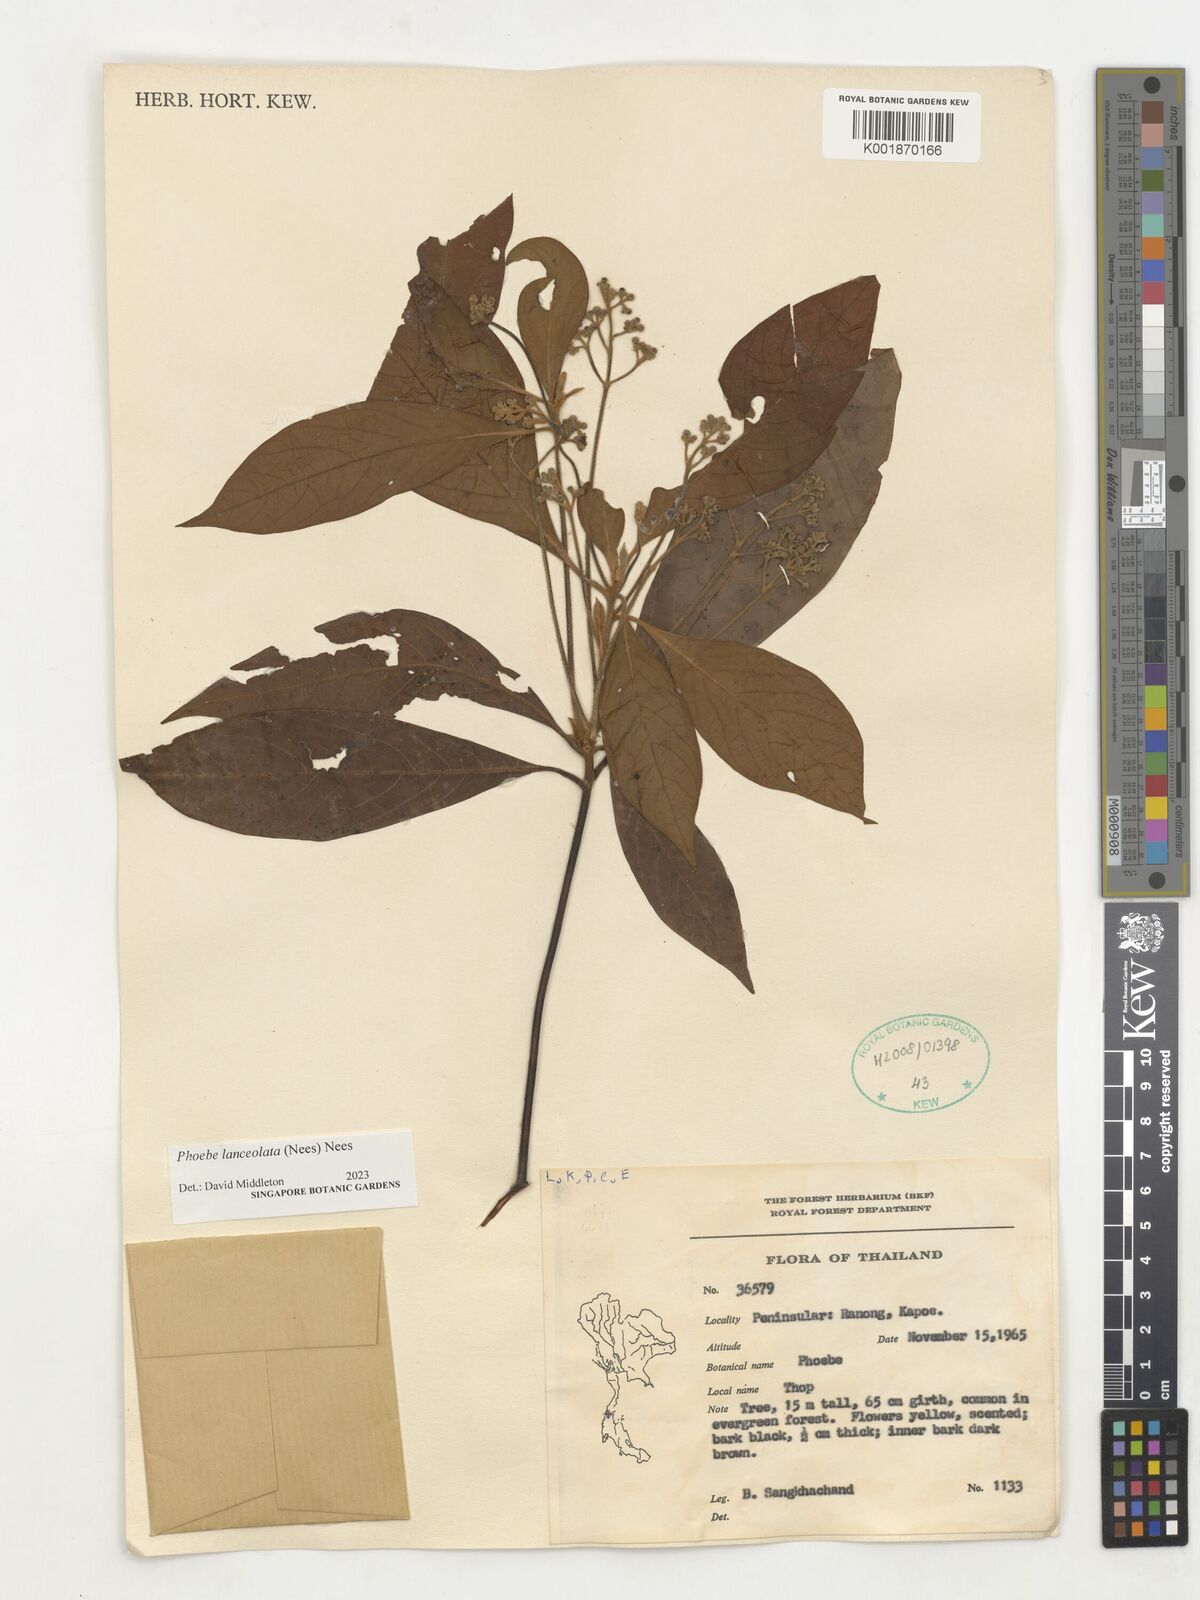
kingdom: Plantae
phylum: Tracheophyta
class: Magnoliopsida
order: Laurales
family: Lauraceae
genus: Phoebe
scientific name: Phoebe lanceolata
